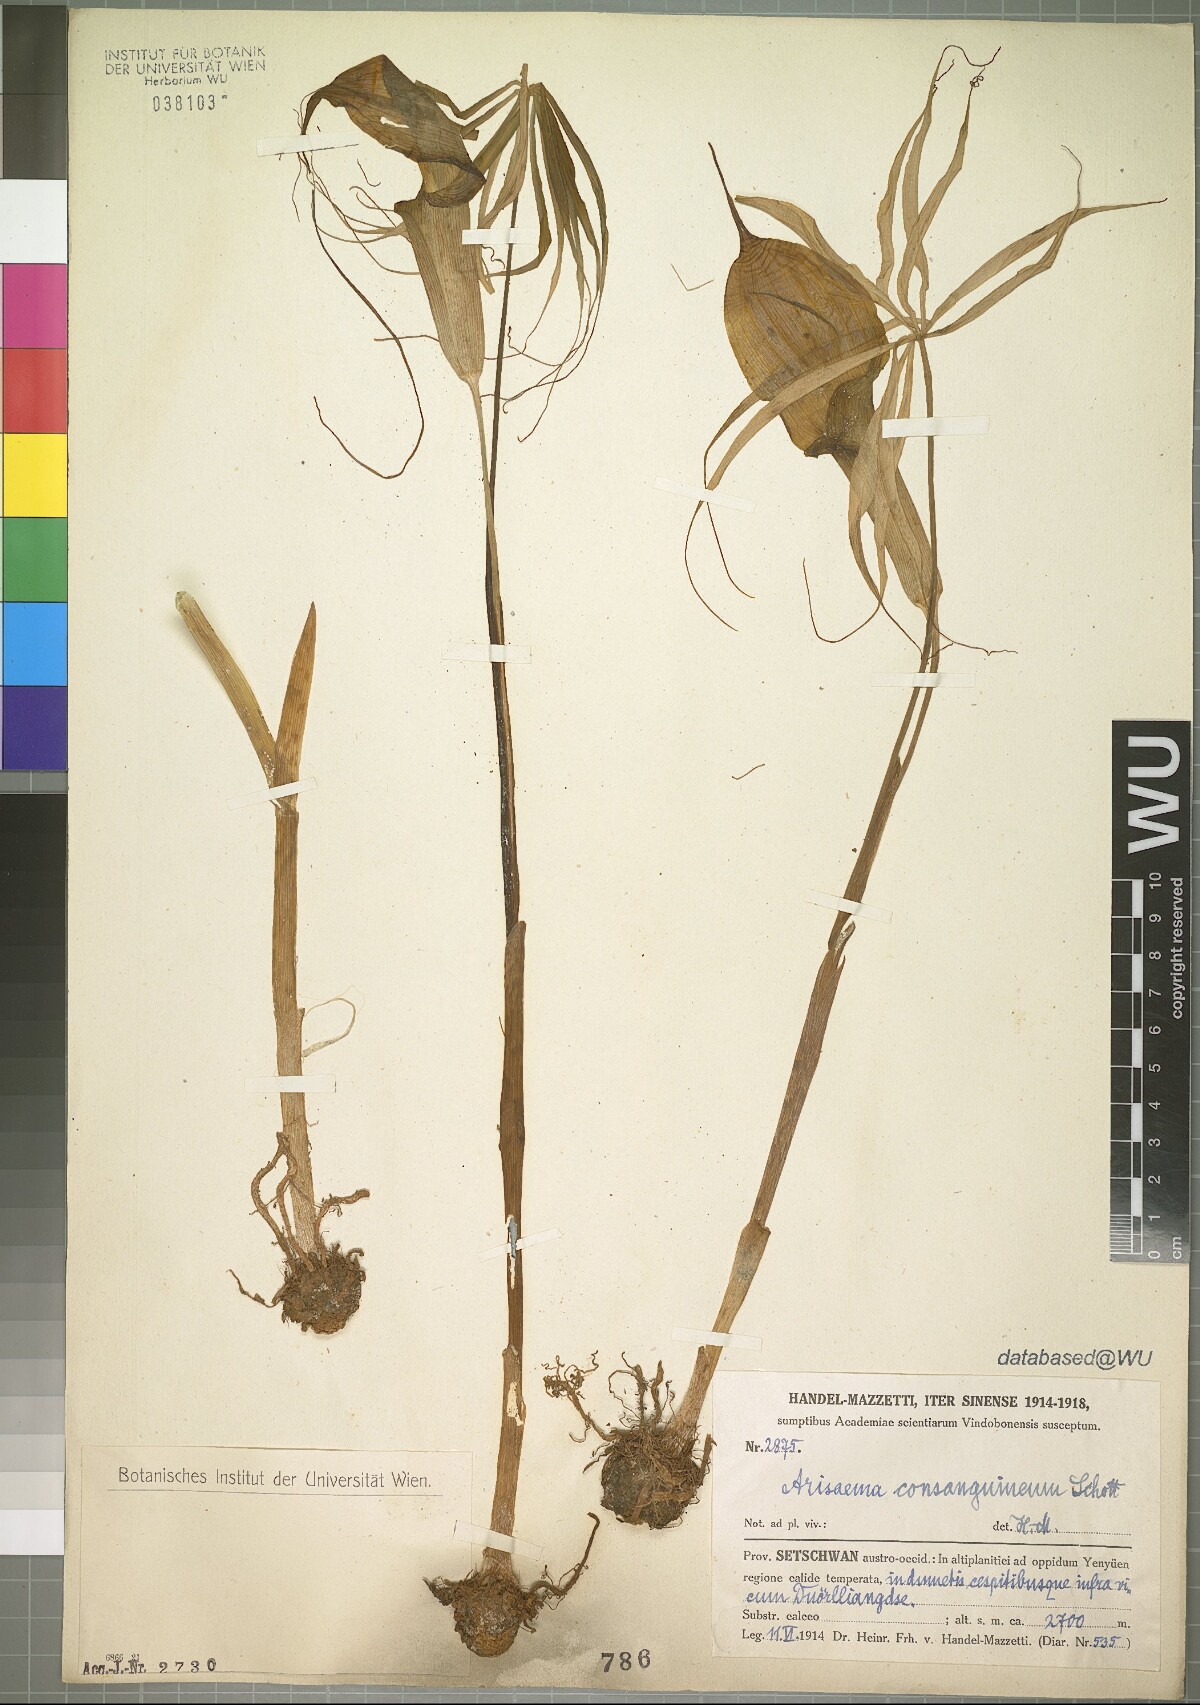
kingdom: Plantae
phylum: Tracheophyta
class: Liliopsida
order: Alismatales
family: Araceae
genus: Arisaema
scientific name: Arisaema consanguineum
